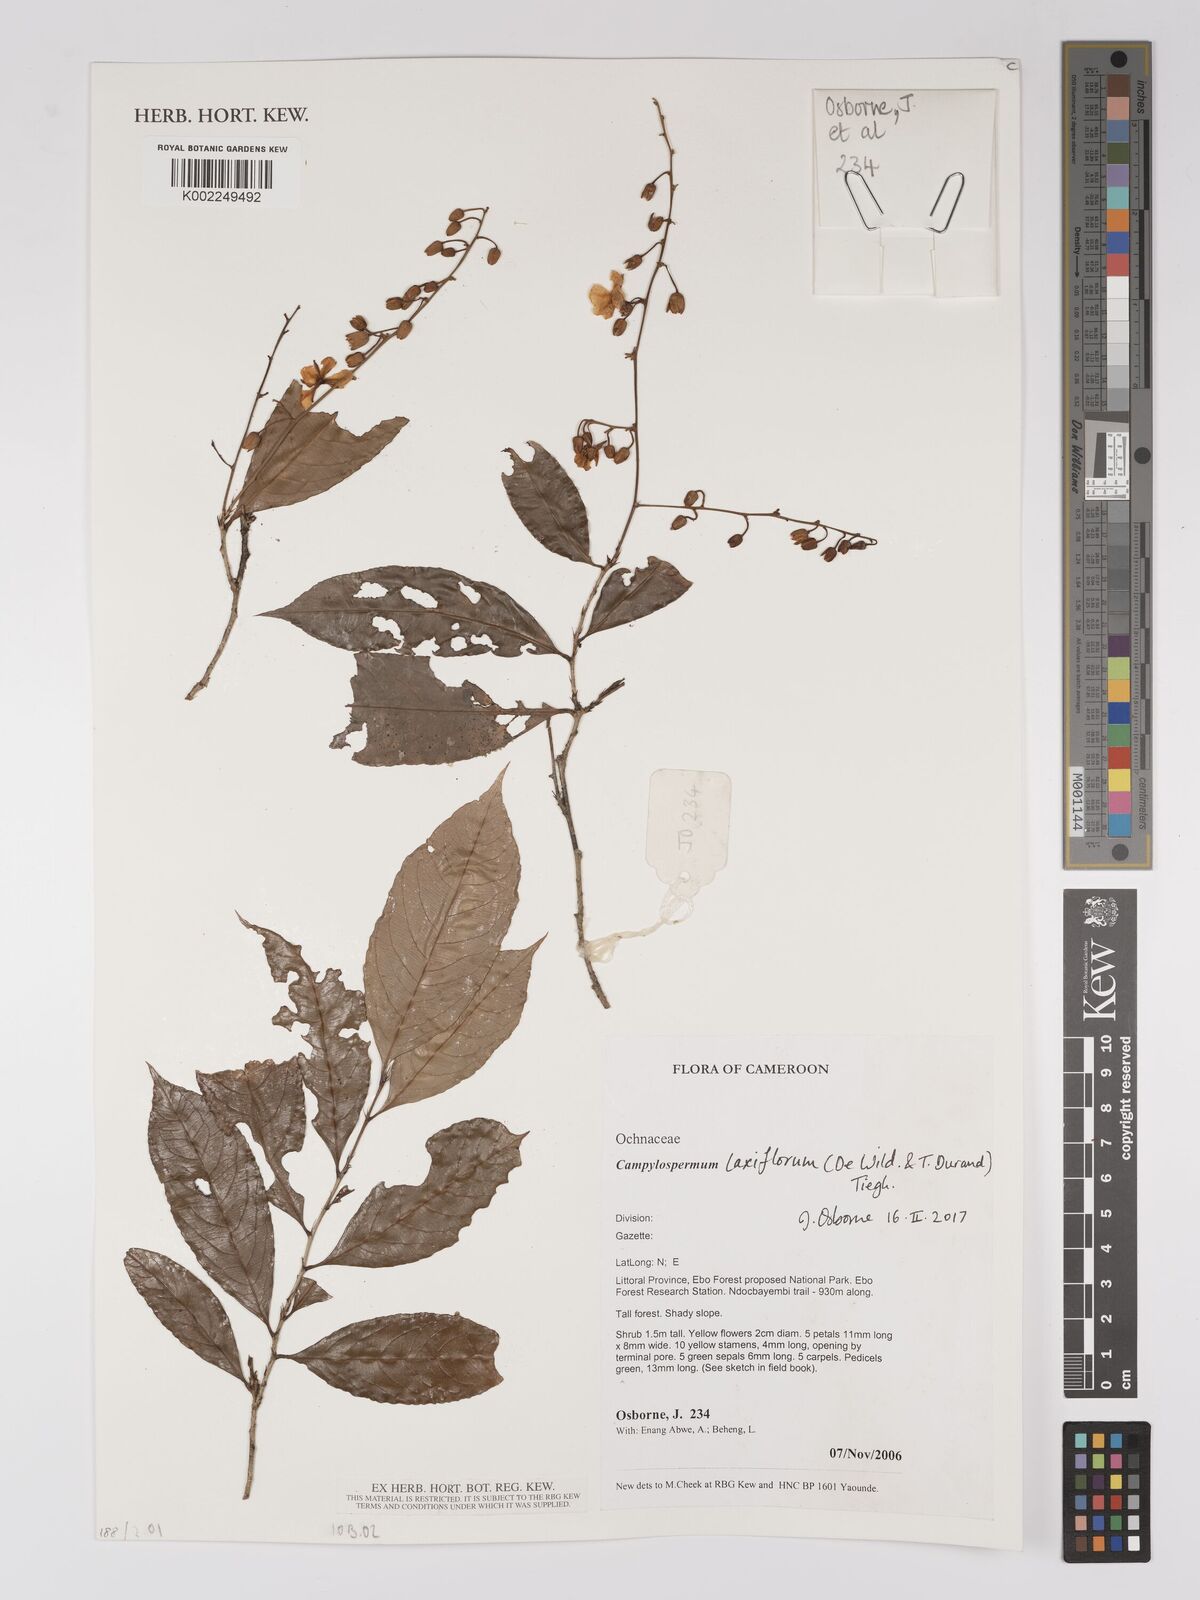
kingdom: Plantae
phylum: Tracheophyta
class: Magnoliopsida
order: Malpighiales
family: Ochnaceae
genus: Campylospermum
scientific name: Campylospermum laxiflorum
